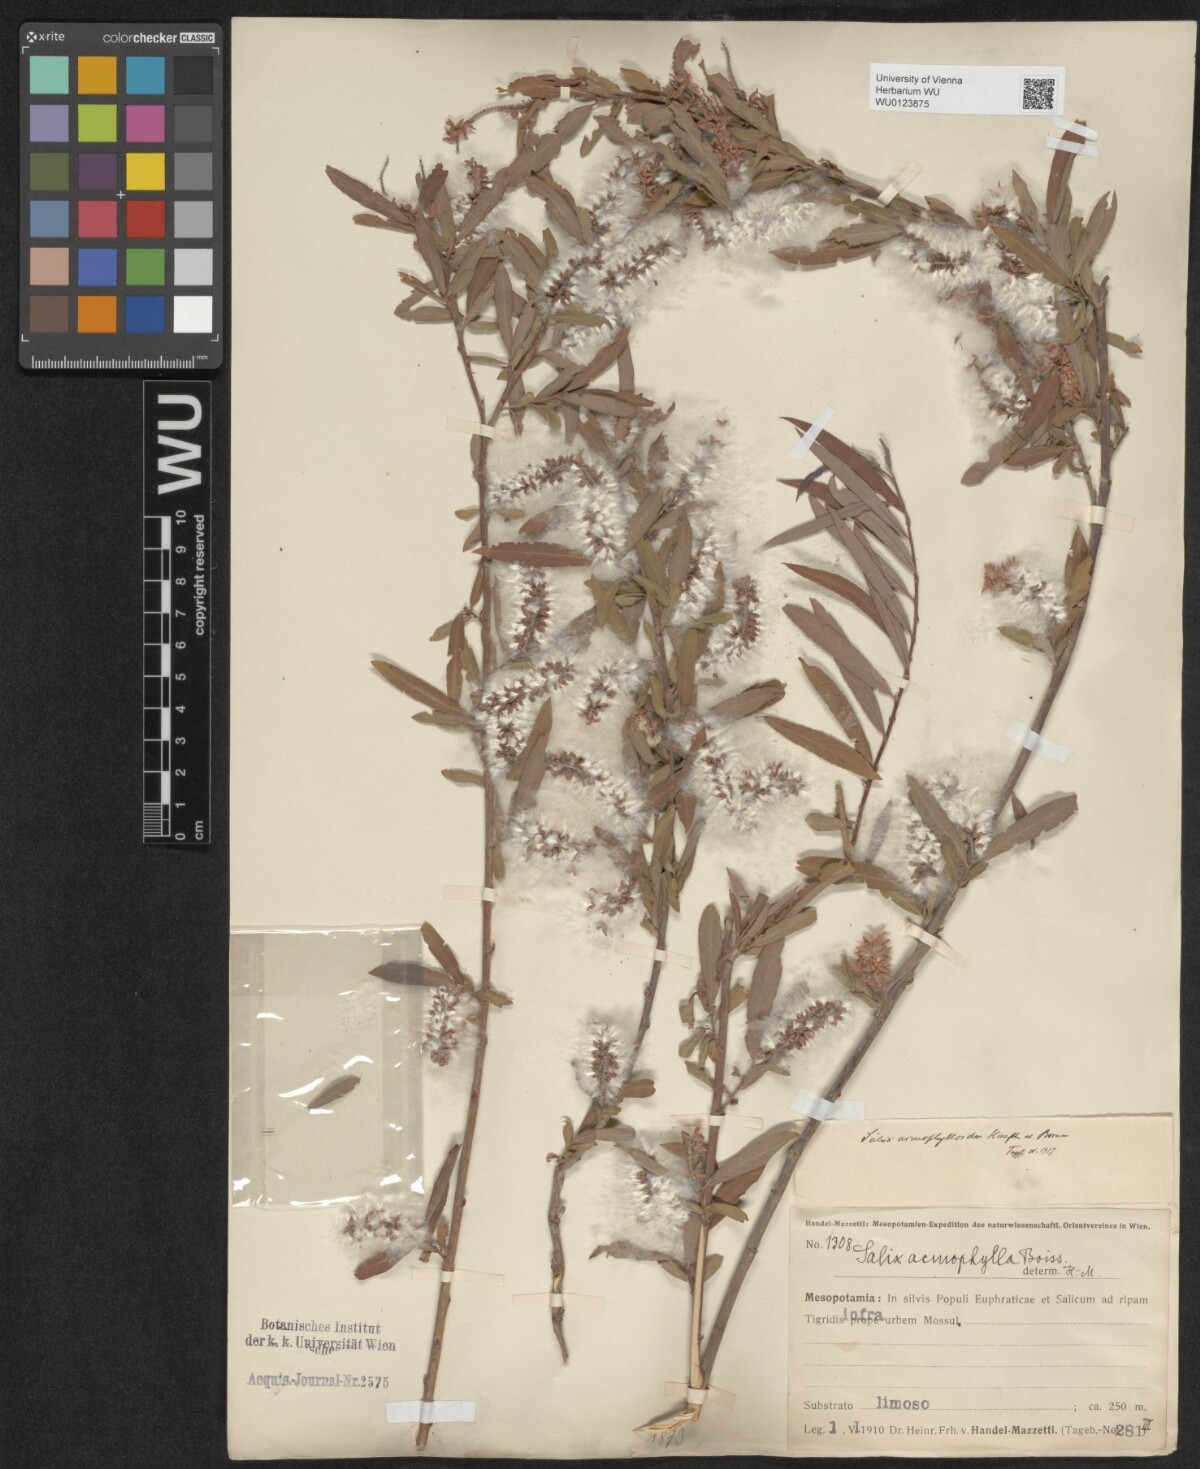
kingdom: Plantae
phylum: Tracheophyta
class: Magnoliopsida
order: Malpighiales
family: Salicaceae
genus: Salix
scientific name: Salix
